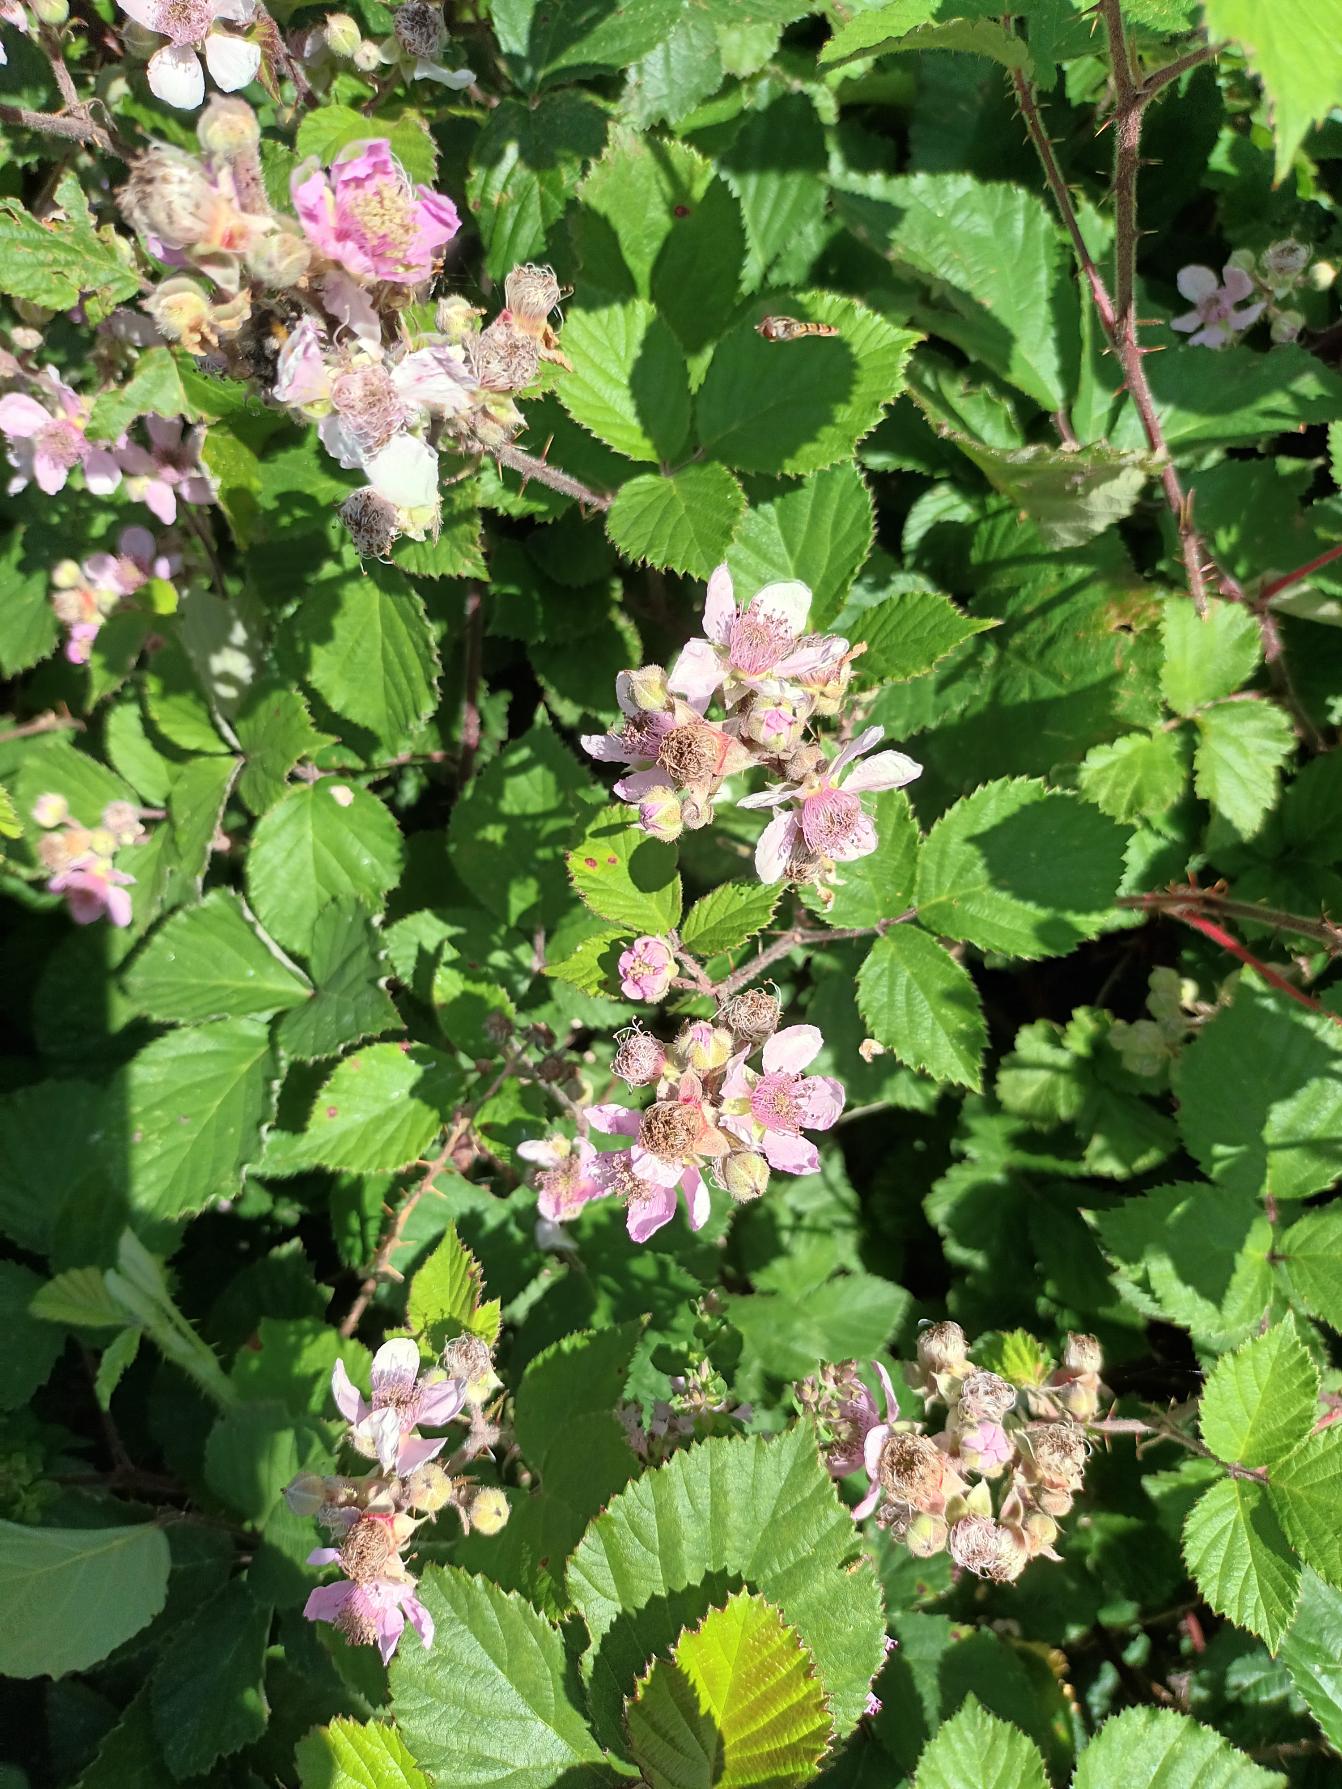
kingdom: Plantae
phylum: Tracheophyta
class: Magnoliopsida
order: Rosales
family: Rosaceae
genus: Rubus
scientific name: Rubus vestitus
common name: Rundbladet brombær
